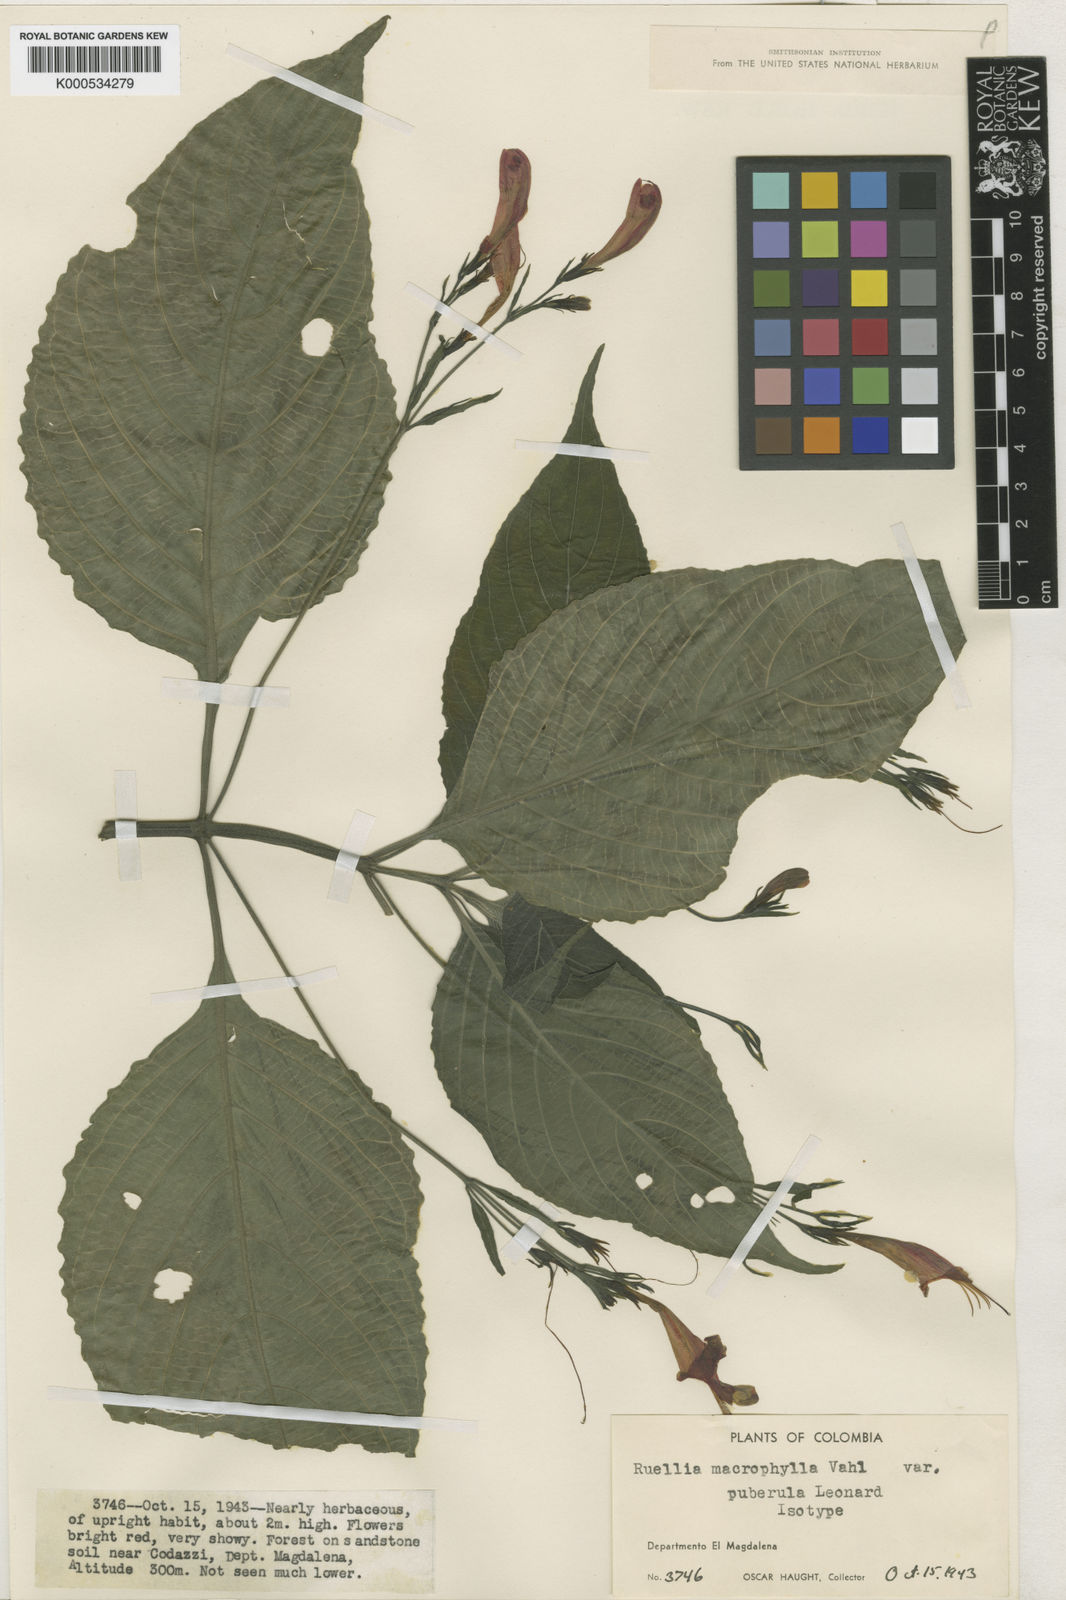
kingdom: Plantae
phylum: Tracheophyta
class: Magnoliopsida
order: Lamiales
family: Acanthaceae
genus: Ruellia
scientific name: Ruellia macrophylla
